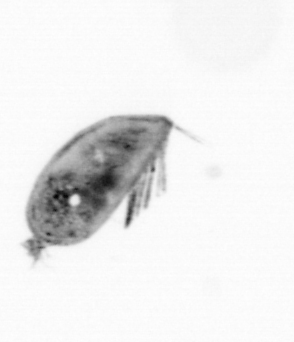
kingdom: Animalia
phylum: Arthropoda
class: Maxillopoda
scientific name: Maxillopoda
